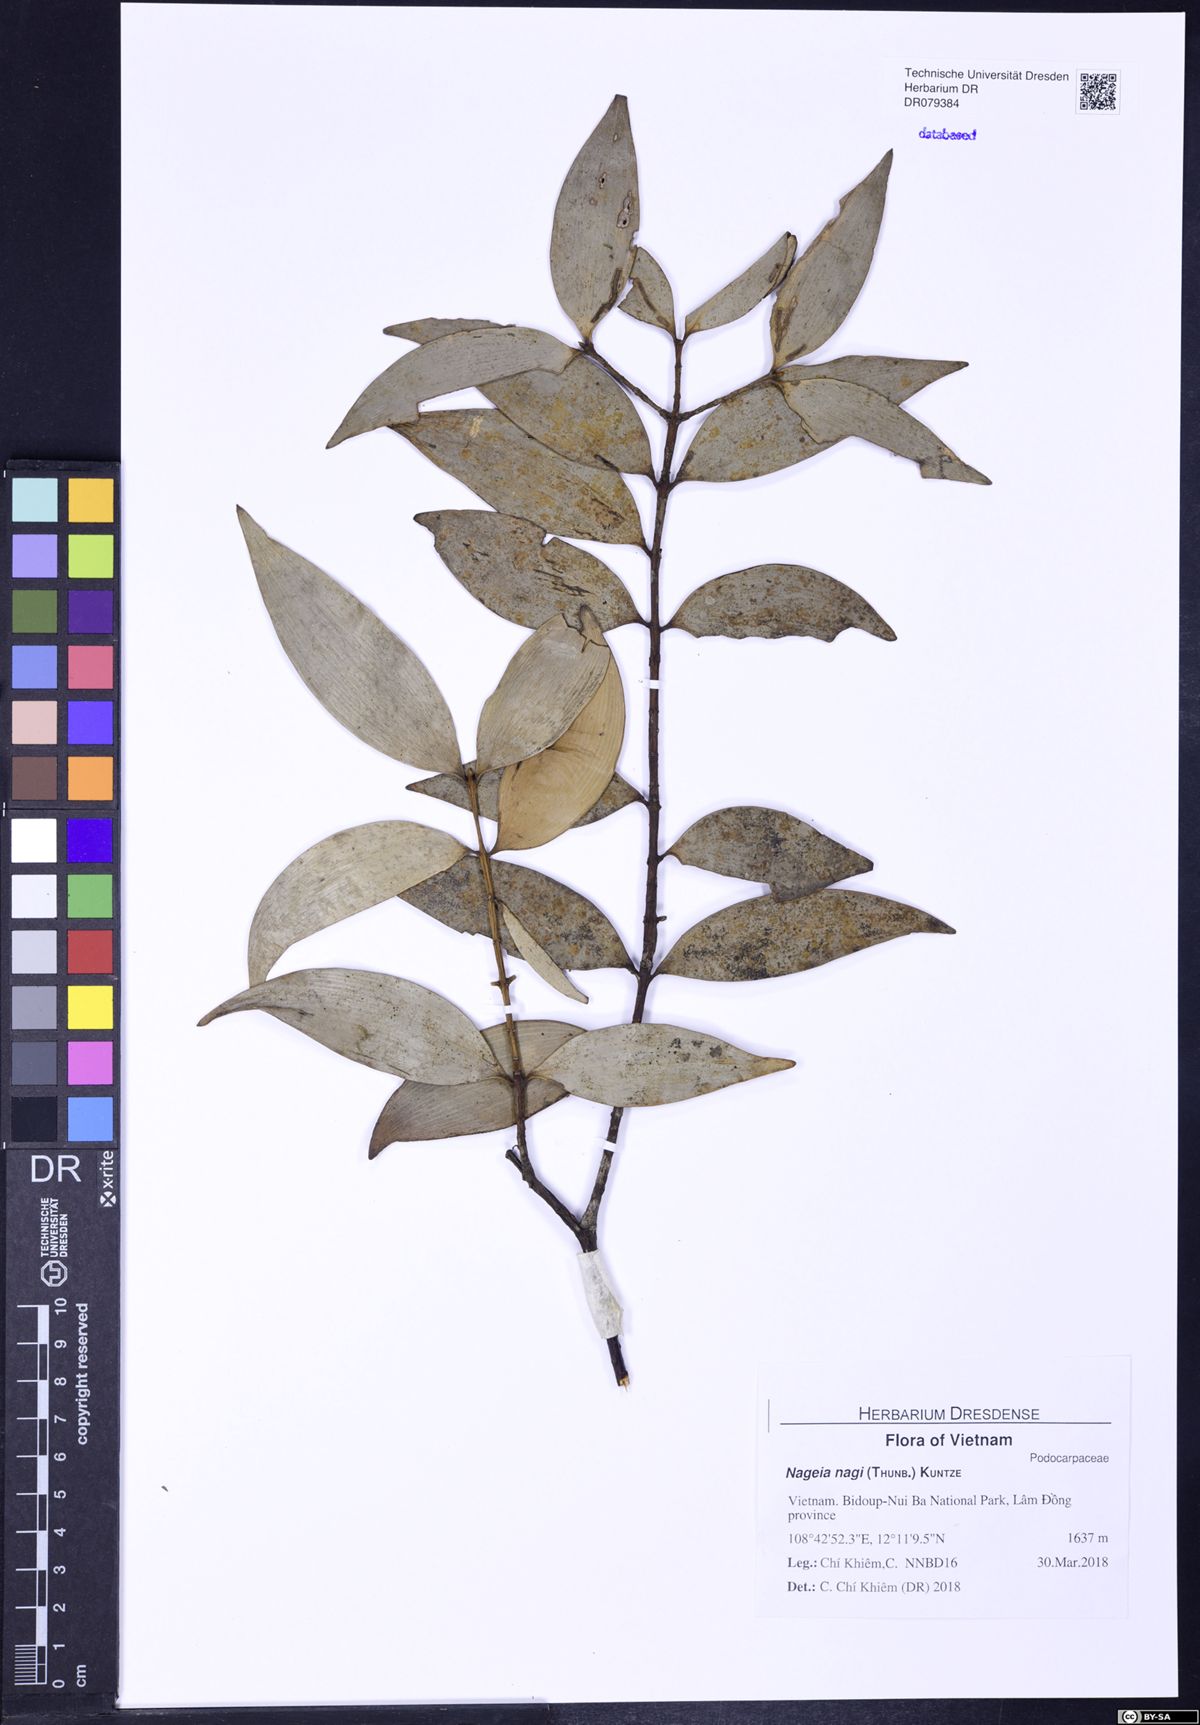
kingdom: Plantae
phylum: Tracheophyta
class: Pinopsida
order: Pinales
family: Podocarpaceae
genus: Nageia
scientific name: Nageia nagi
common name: Kaphal
